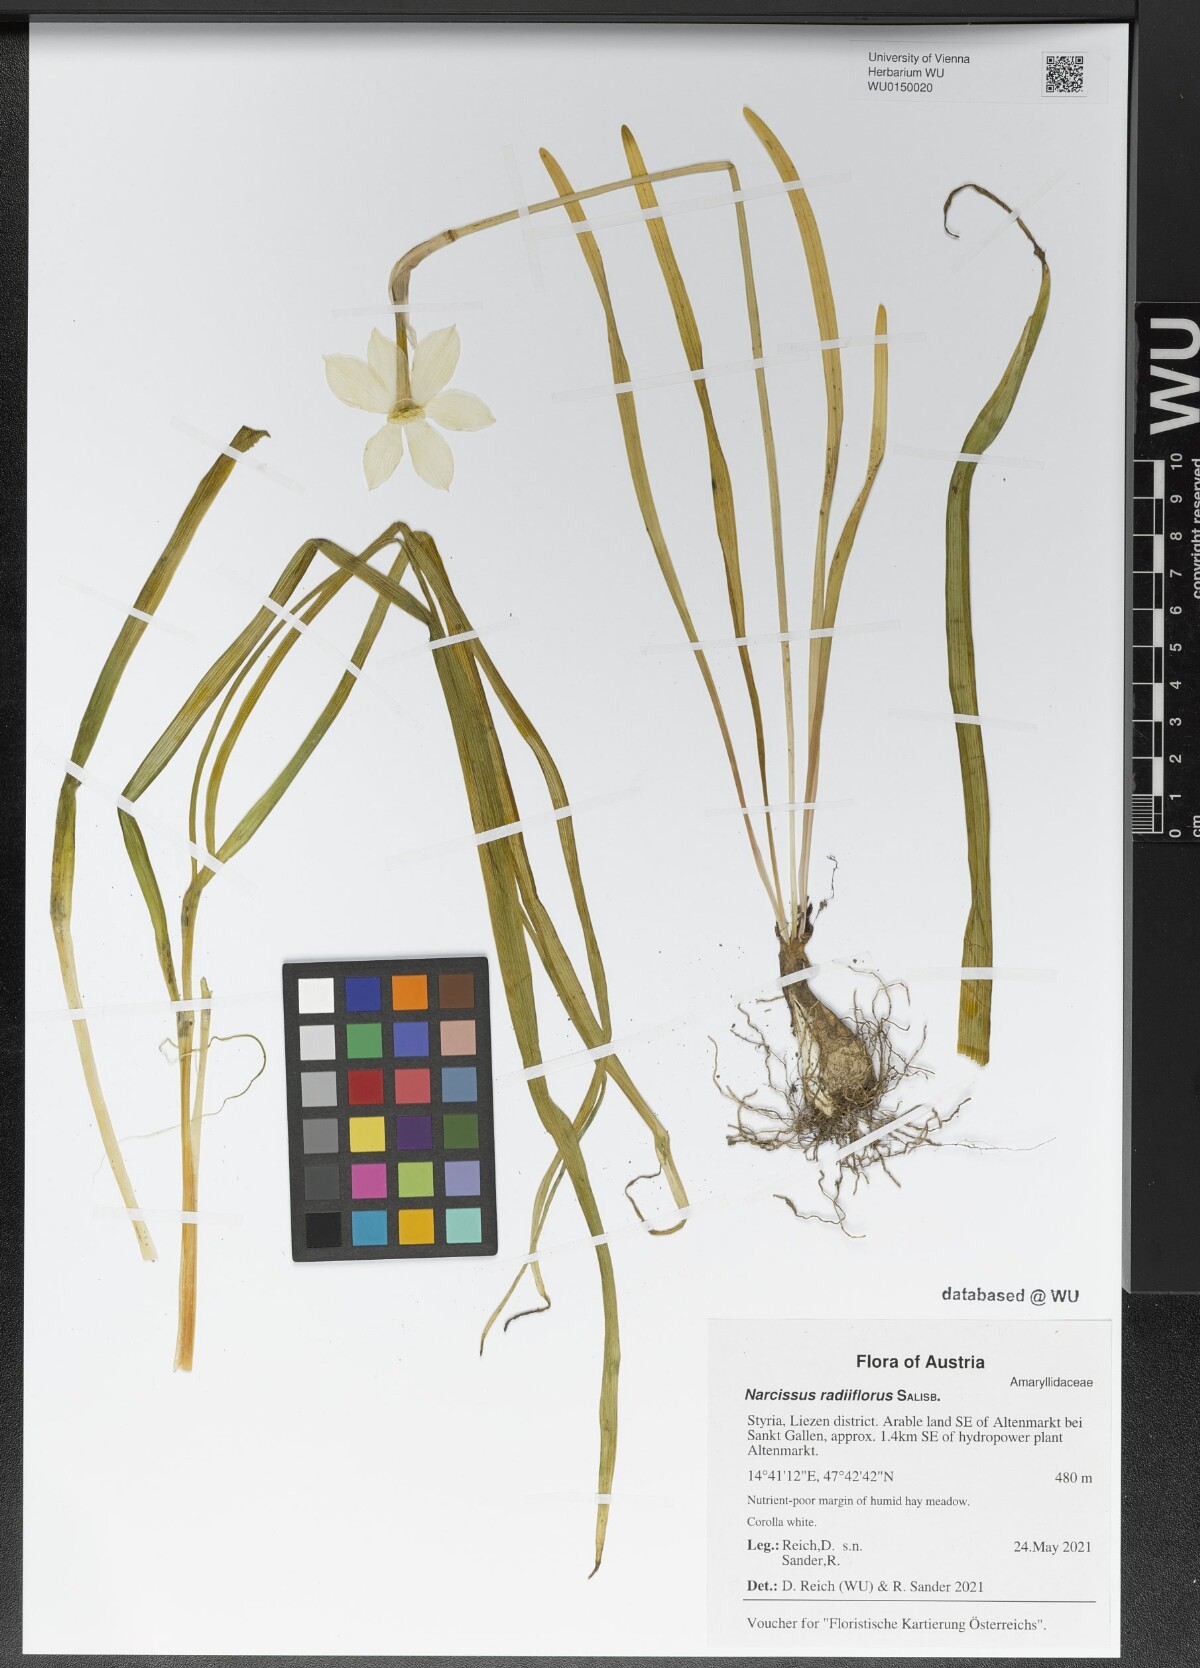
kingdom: Plantae
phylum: Tracheophyta
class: Liliopsida
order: Asparagales
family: Amaryllidaceae
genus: Narcissus
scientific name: Narcissus poeticus
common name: Pheasant's-eye daffodil
